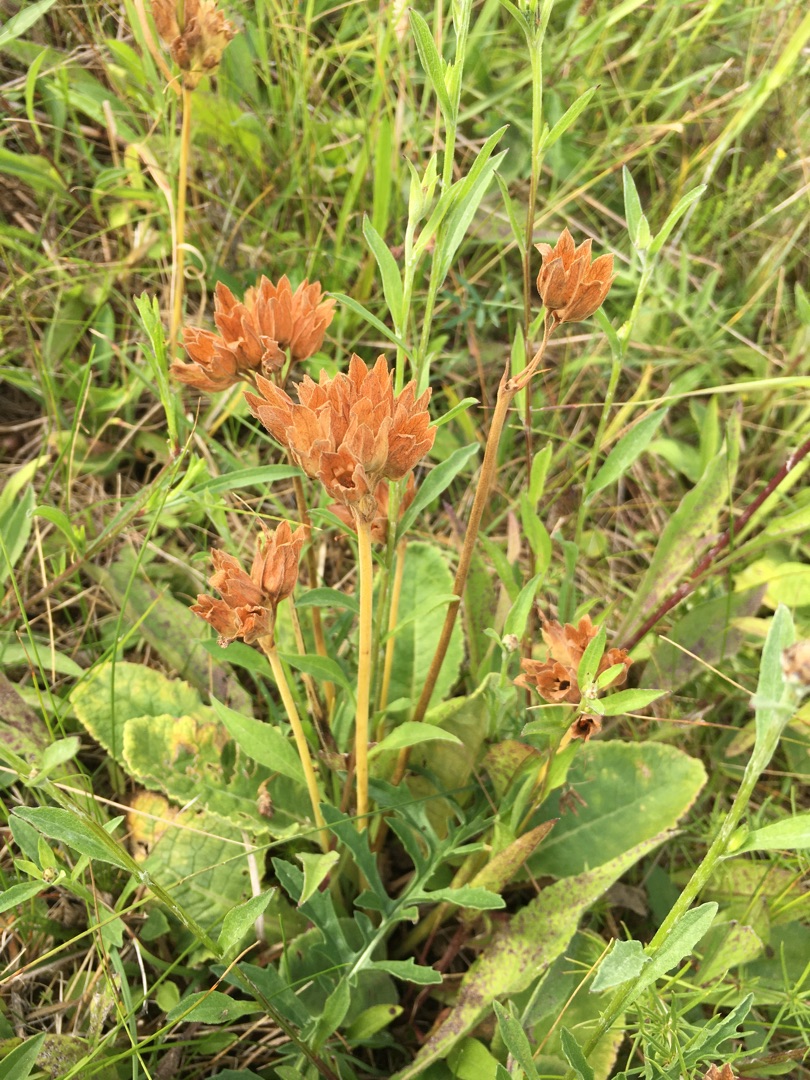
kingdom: Plantae
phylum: Tracheophyta
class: Magnoliopsida
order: Ericales
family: Primulaceae
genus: Primula
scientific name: Primula veris
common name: Hulkravet kodriver
